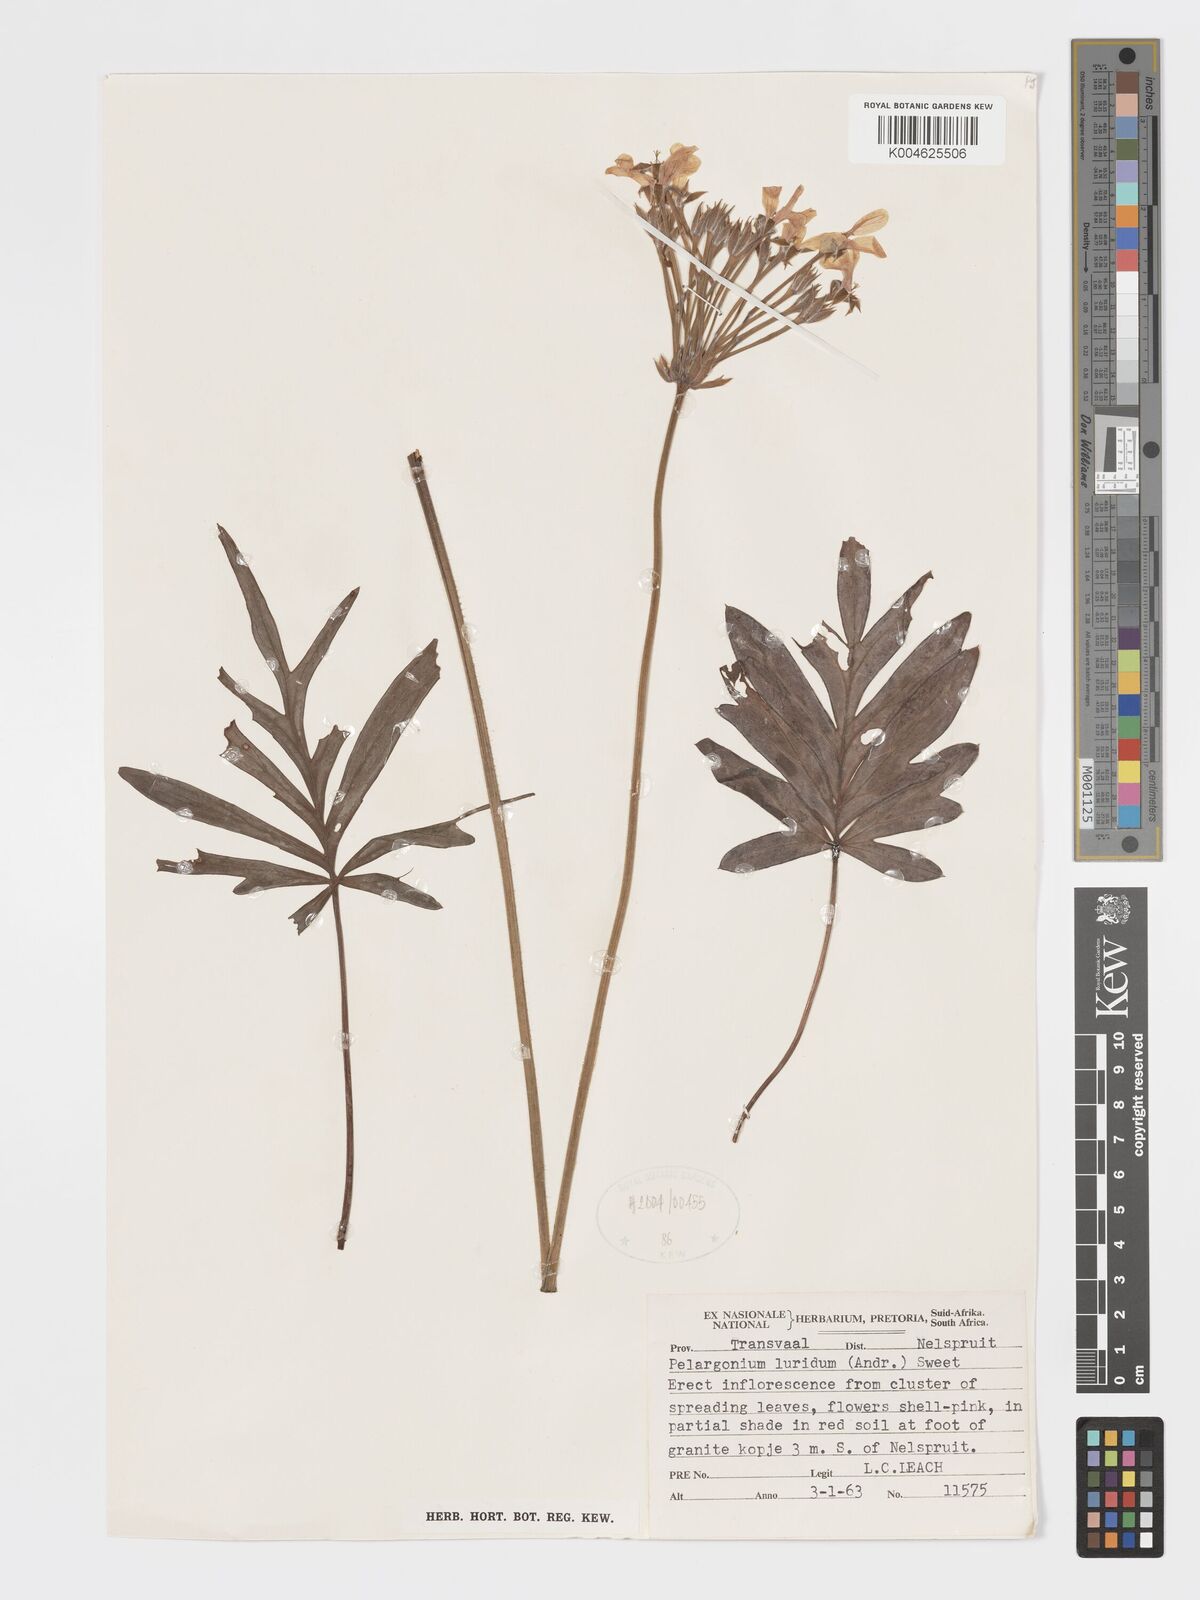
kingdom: Plantae
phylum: Tracheophyta
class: Magnoliopsida
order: Geraniales
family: Geraniaceae
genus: Pelargonium
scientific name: Pelargonium luridum
